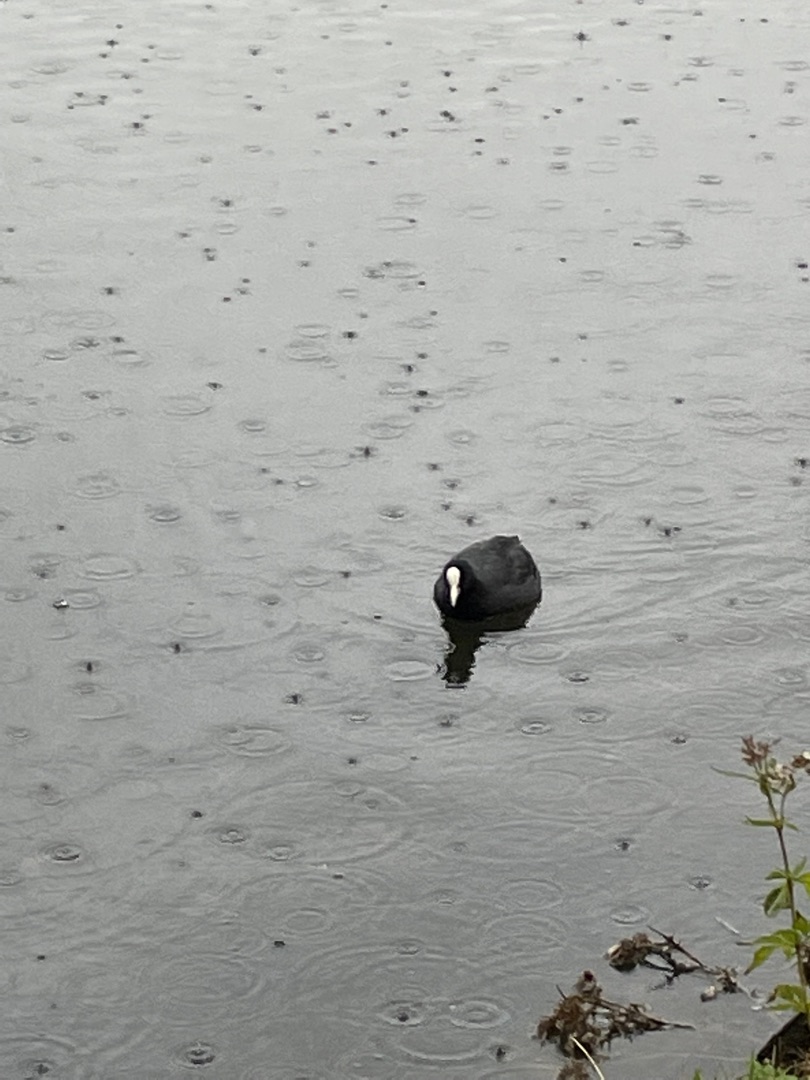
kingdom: Animalia
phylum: Chordata
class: Aves
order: Gruiformes
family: Rallidae
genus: Fulica
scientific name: Fulica atra
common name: Blishøne
